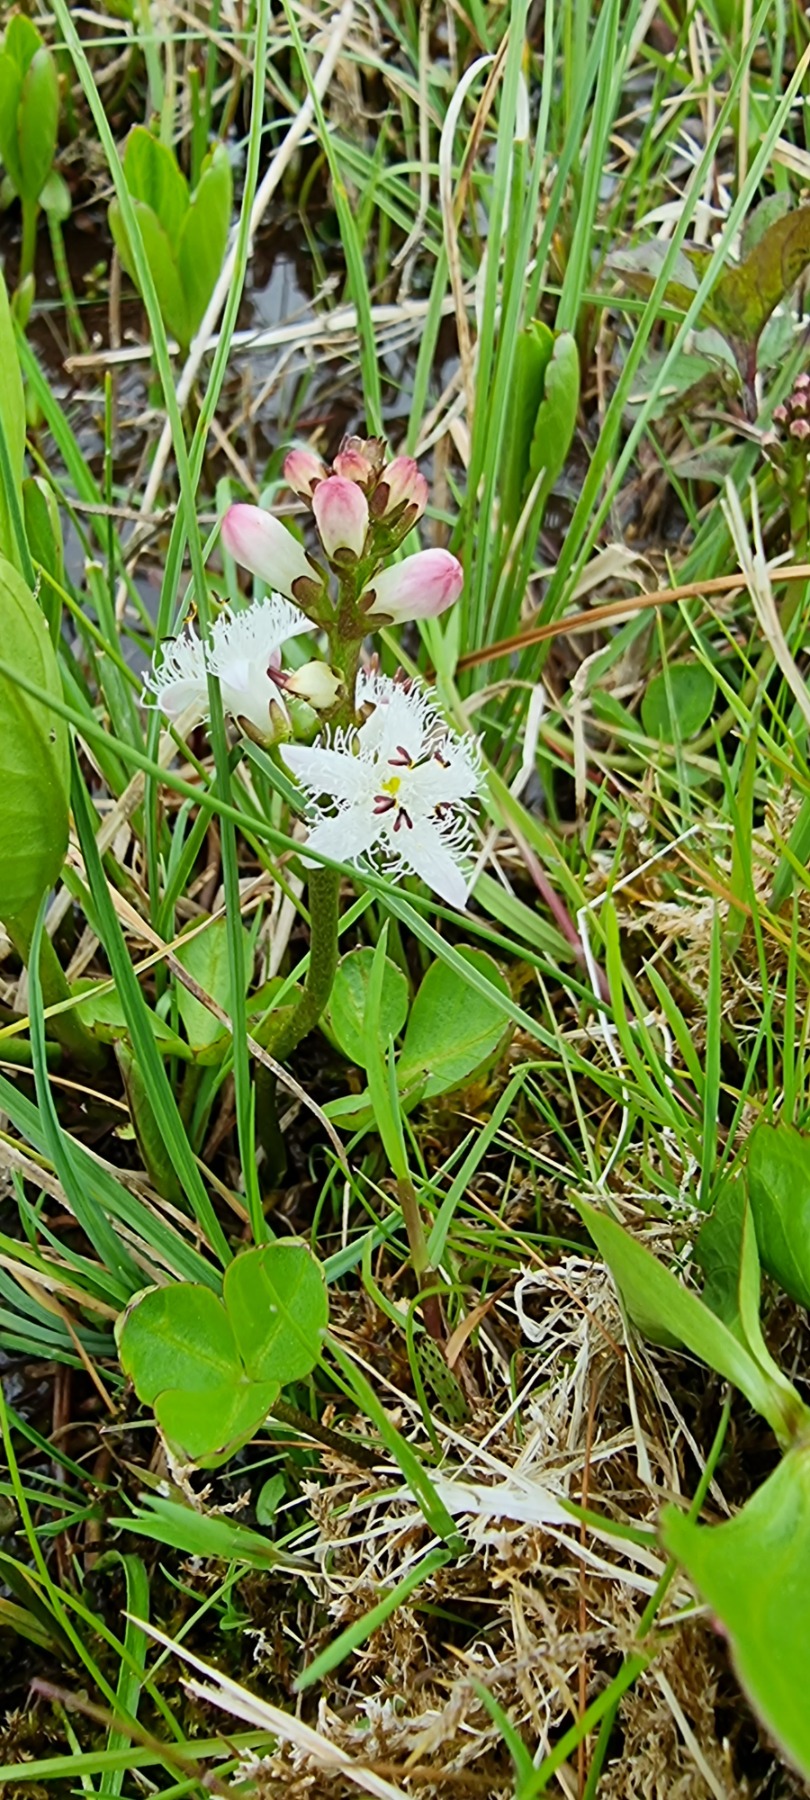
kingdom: Plantae
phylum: Tracheophyta
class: Magnoliopsida
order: Asterales
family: Menyanthaceae
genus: Menyanthes
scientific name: Menyanthes trifoliata
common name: Bukkeblad
